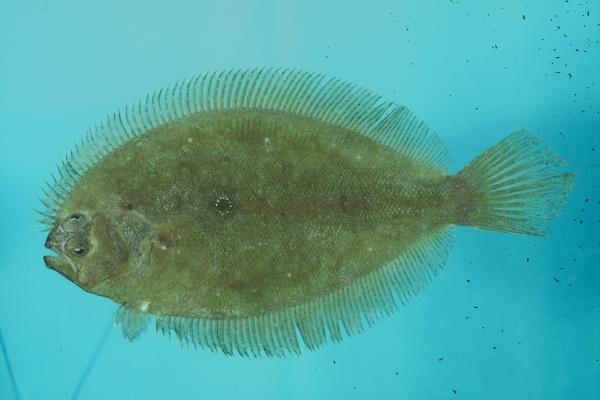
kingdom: Animalia
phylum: Chordata
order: Pleuronectiformes
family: Paralichthyidae
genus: Pseudorhombus
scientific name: Pseudorhombus cinnamoneus
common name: Cinnamon flounder
